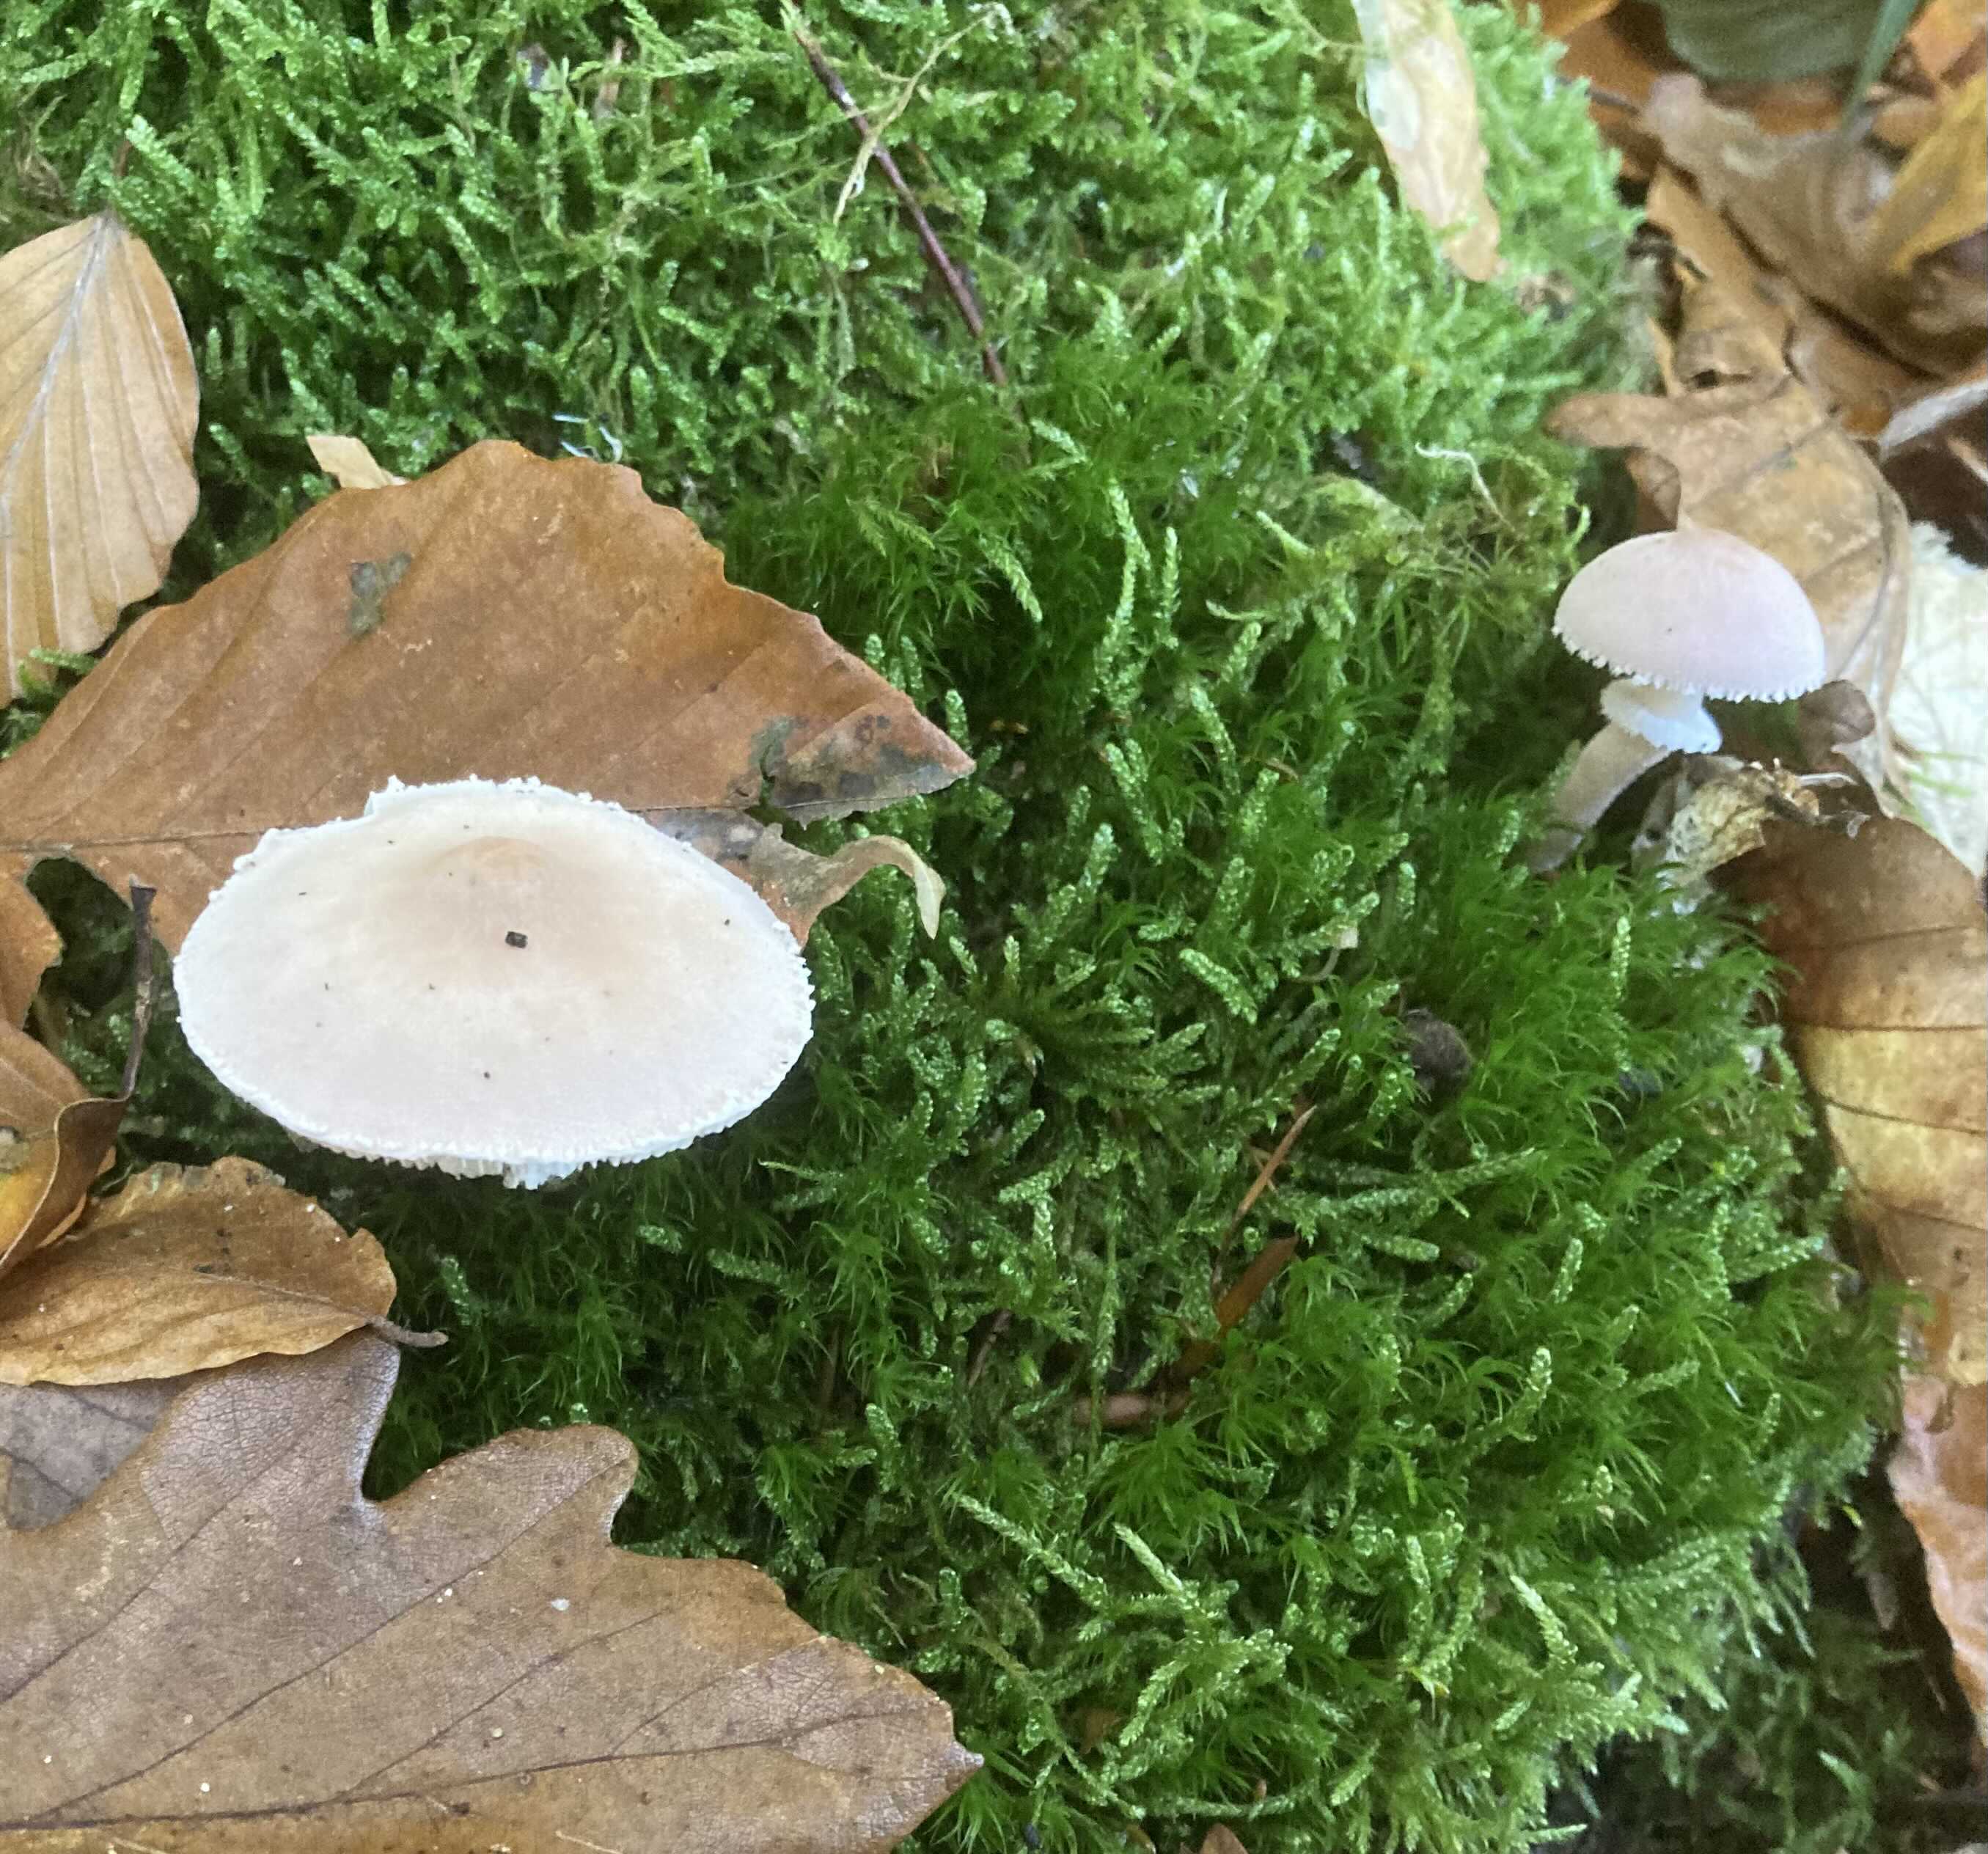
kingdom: Fungi
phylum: Basidiomycota
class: Agaricomycetes
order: Agaricales
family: Tricholomataceae
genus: Cystoderma
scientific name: Cystoderma carcharias
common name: rødgrå grynhat
